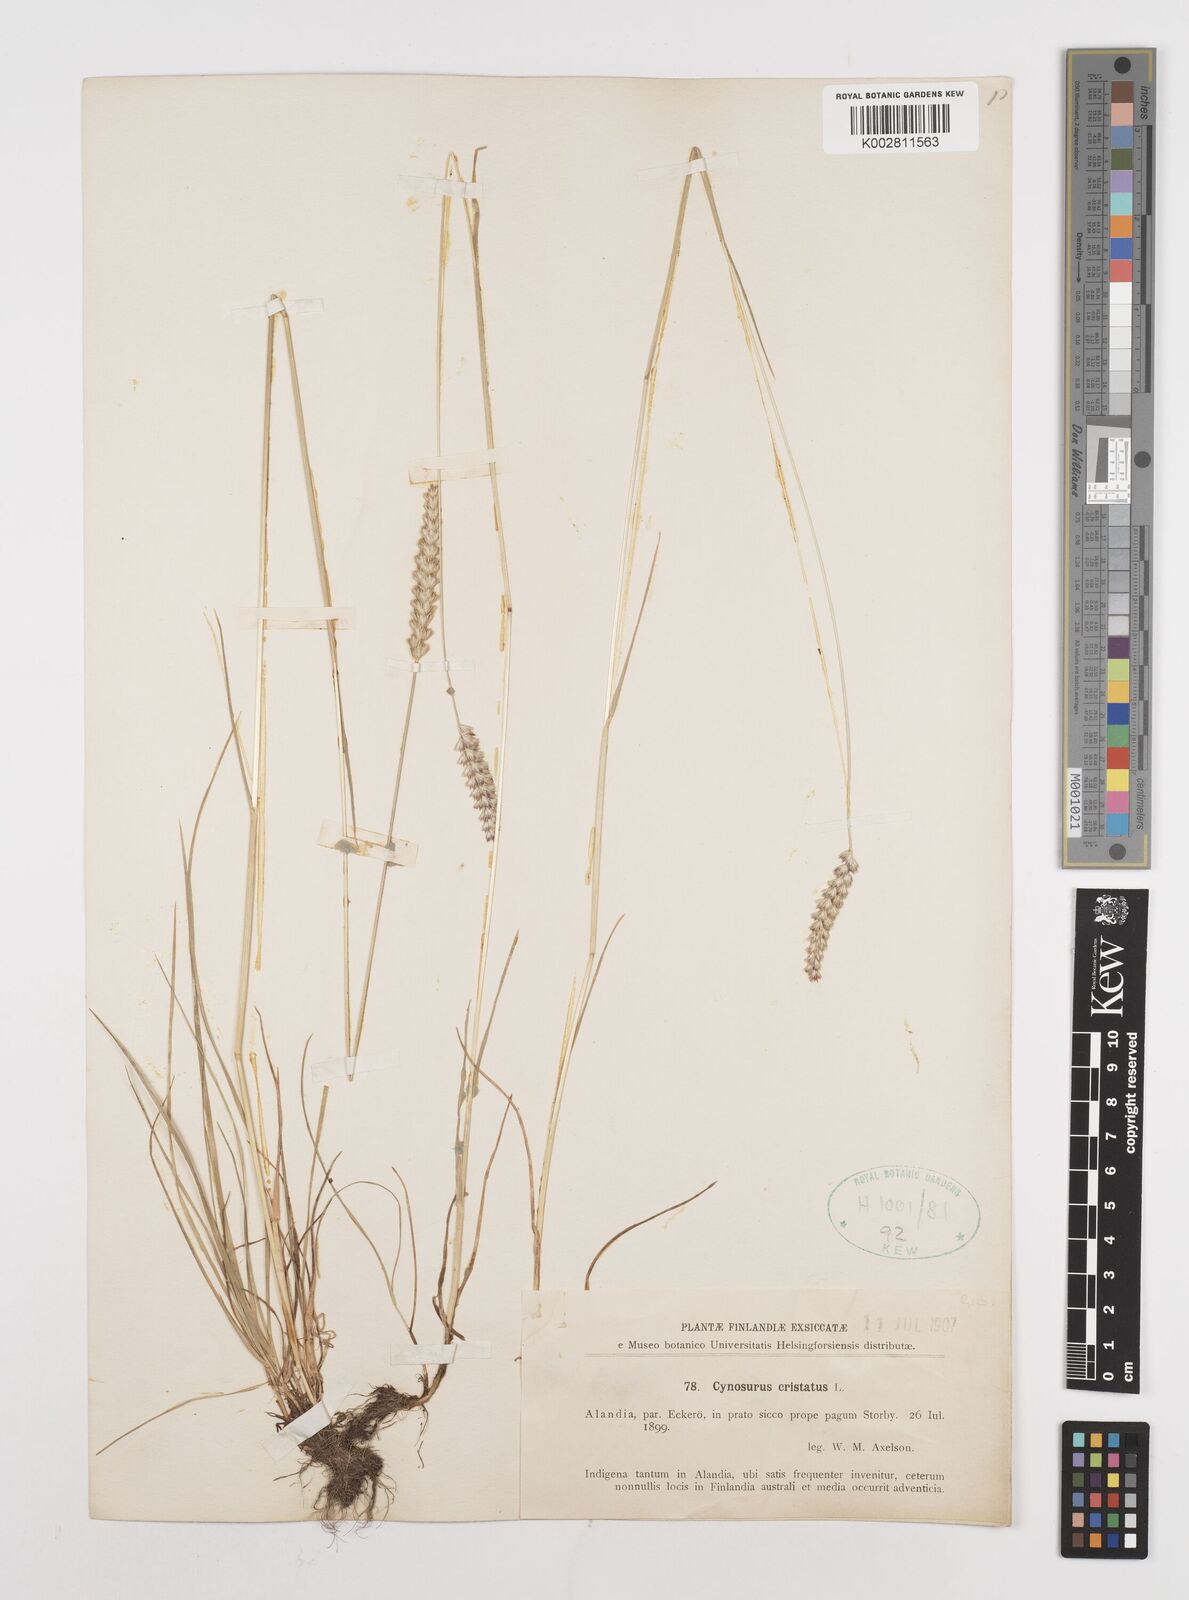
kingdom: Plantae
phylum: Tracheophyta
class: Liliopsida
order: Poales
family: Poaceae
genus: Cynosurus
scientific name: Cynosurus cristatus
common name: Crested dog's-tail
